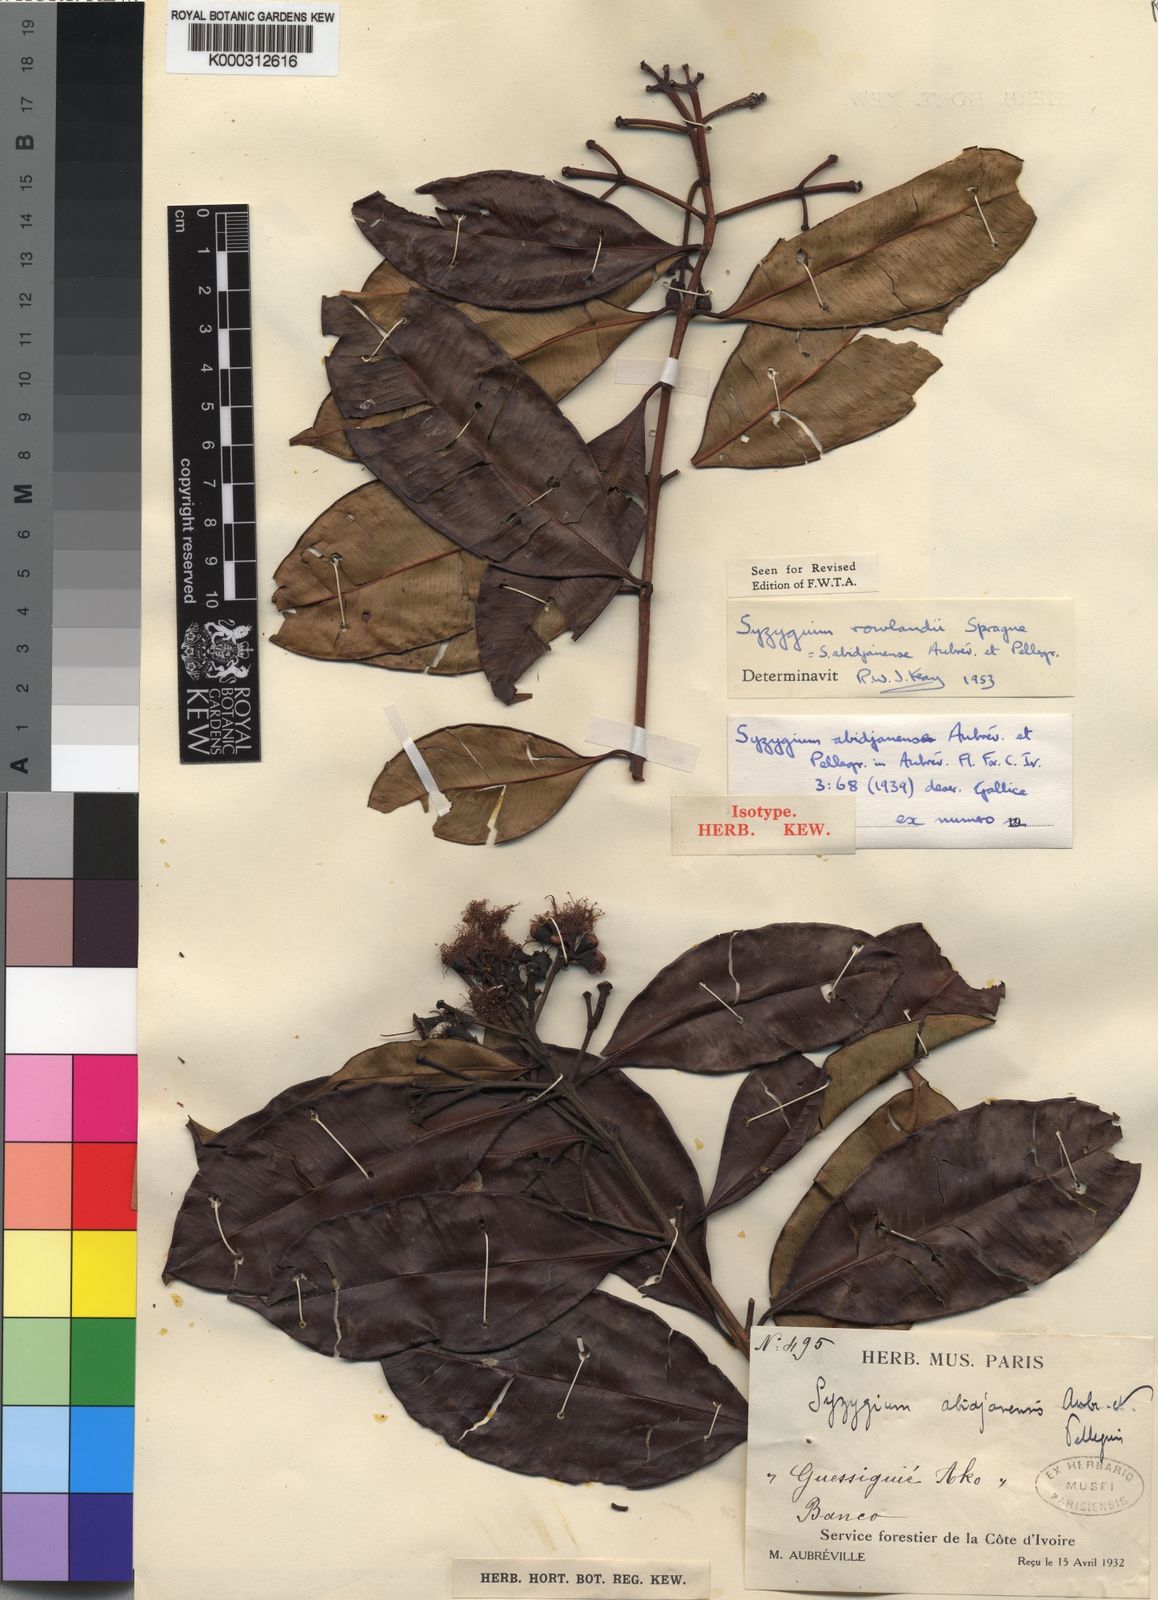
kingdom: Plantae
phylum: Tracheophyta
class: Magnoliopsida
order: Myrtales
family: Myrtaceae
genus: Syzygium
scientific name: Syzygium
